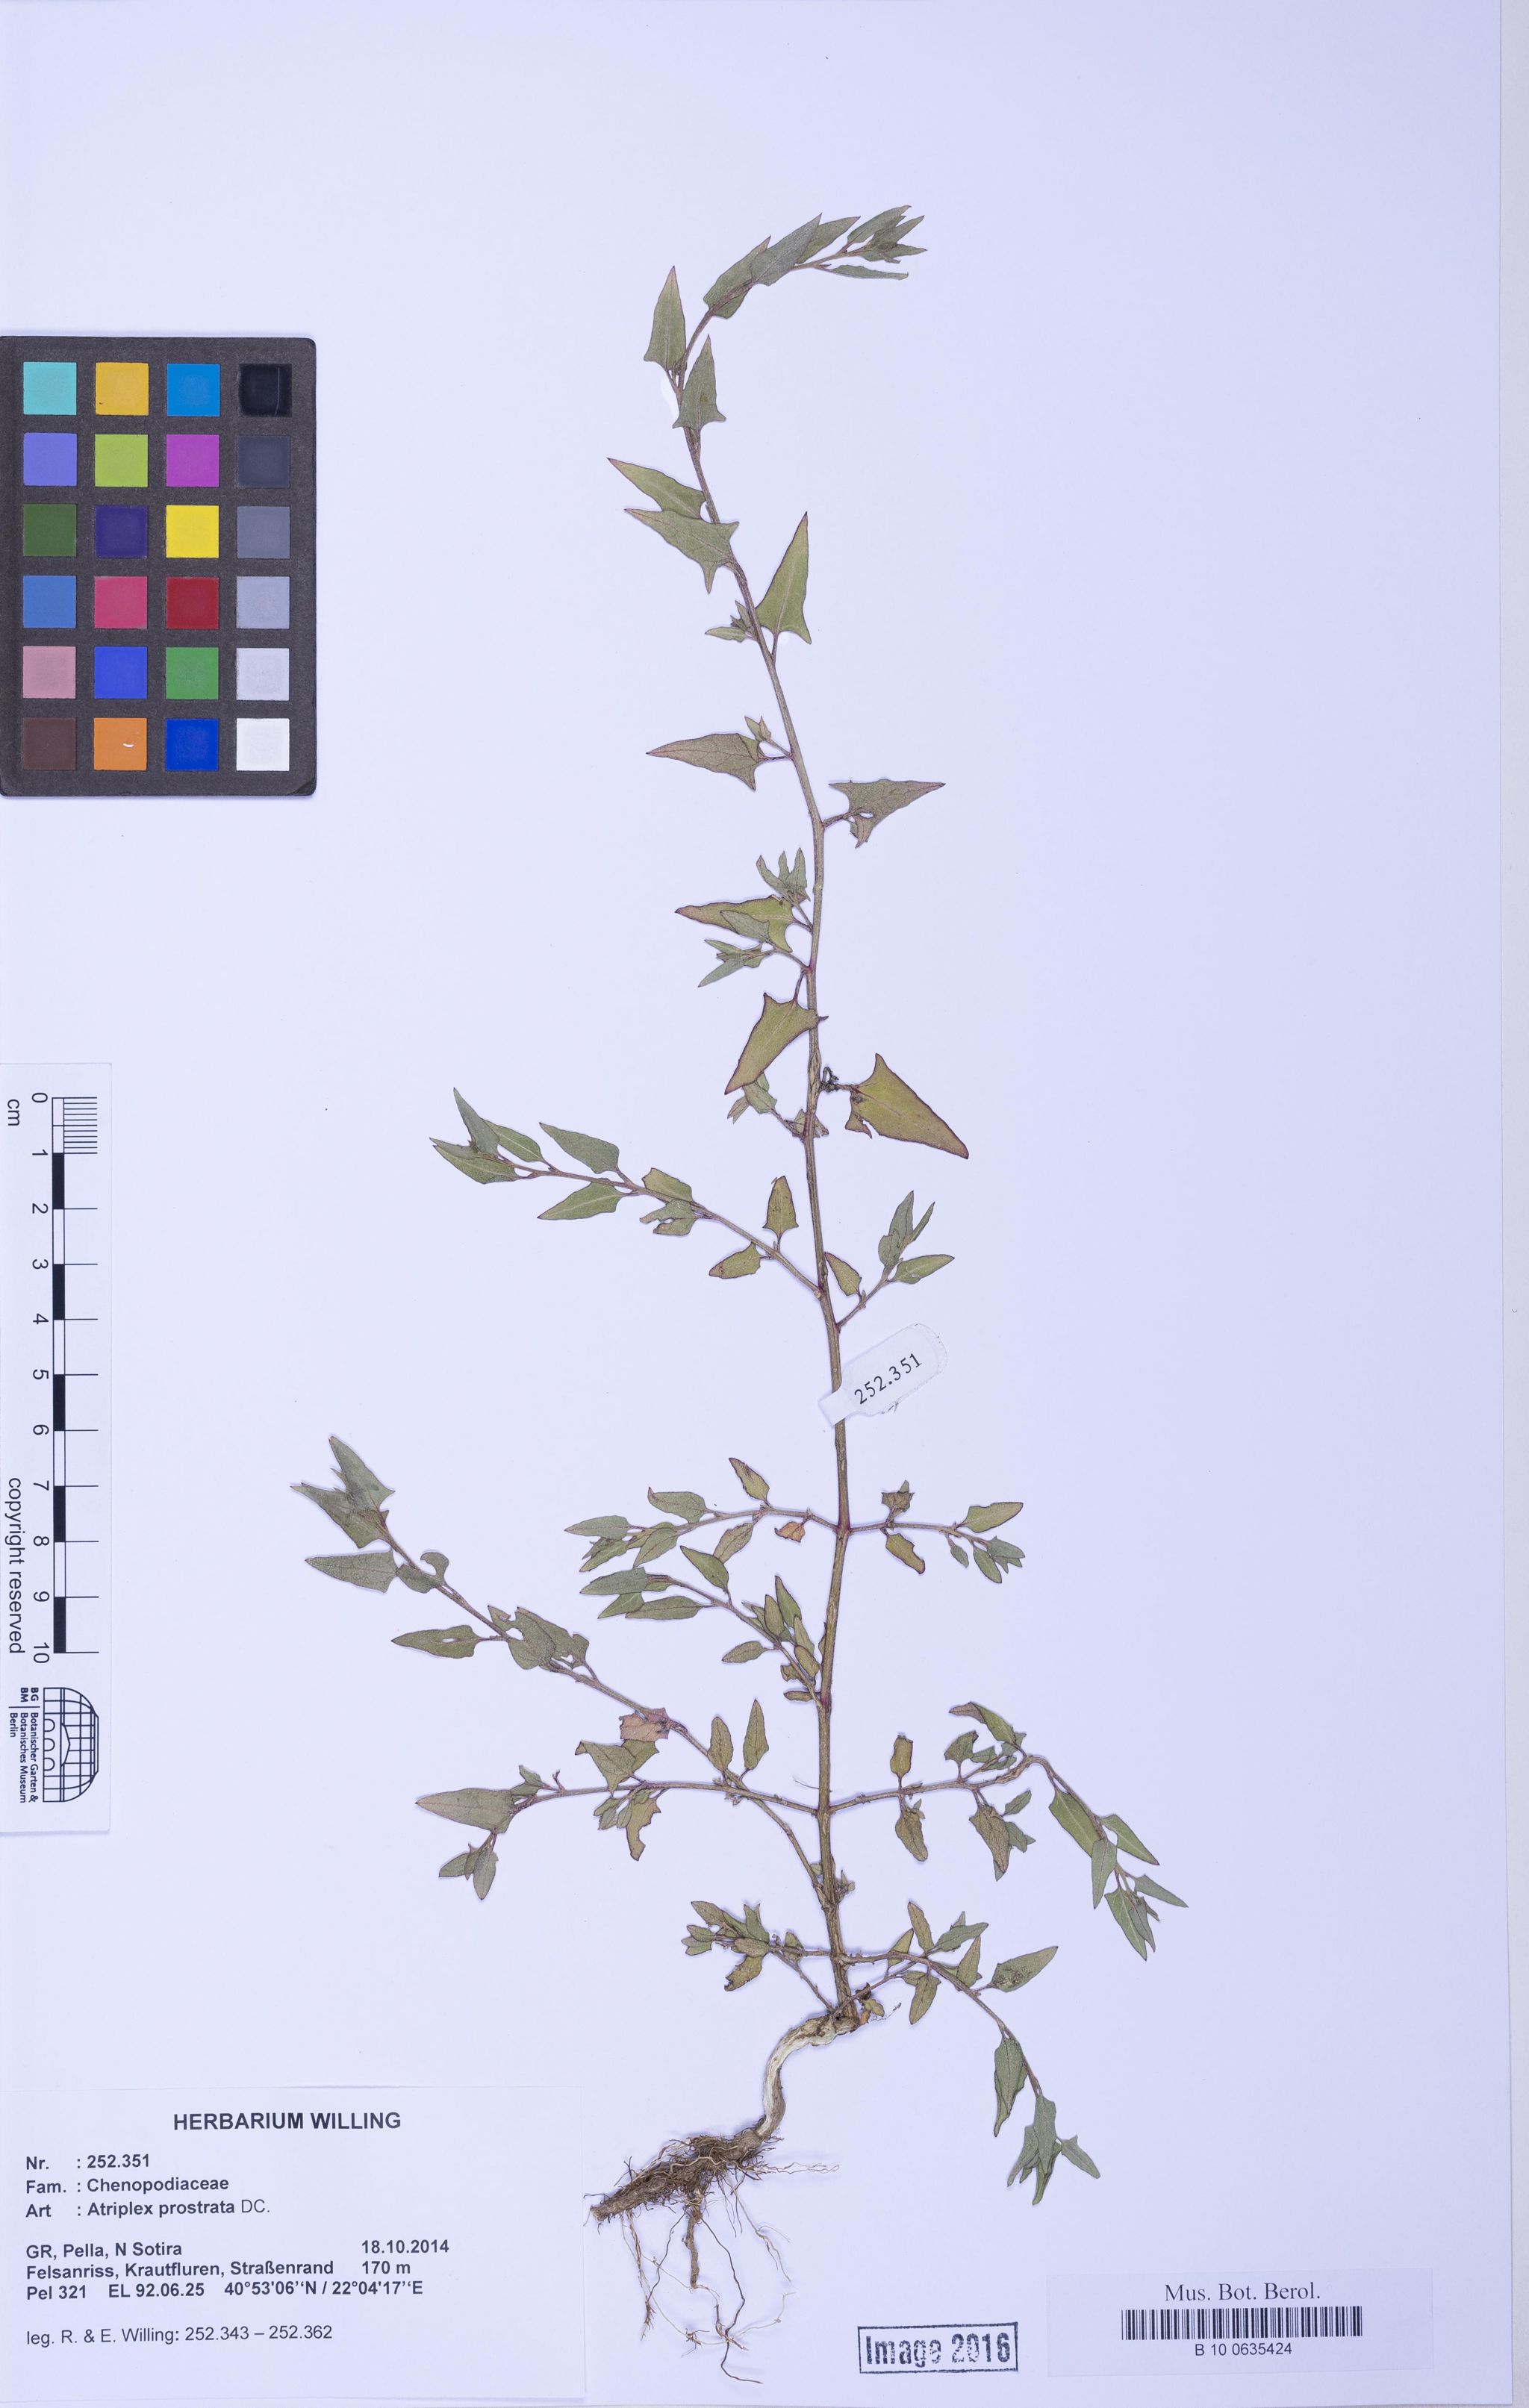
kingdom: Plantae
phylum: Tracheophyta
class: Magnoliopsida
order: Caryophyllales
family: Amaranthaceae
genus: Atriplex
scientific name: Atriplex prostrata
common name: Spear-leaved orache
